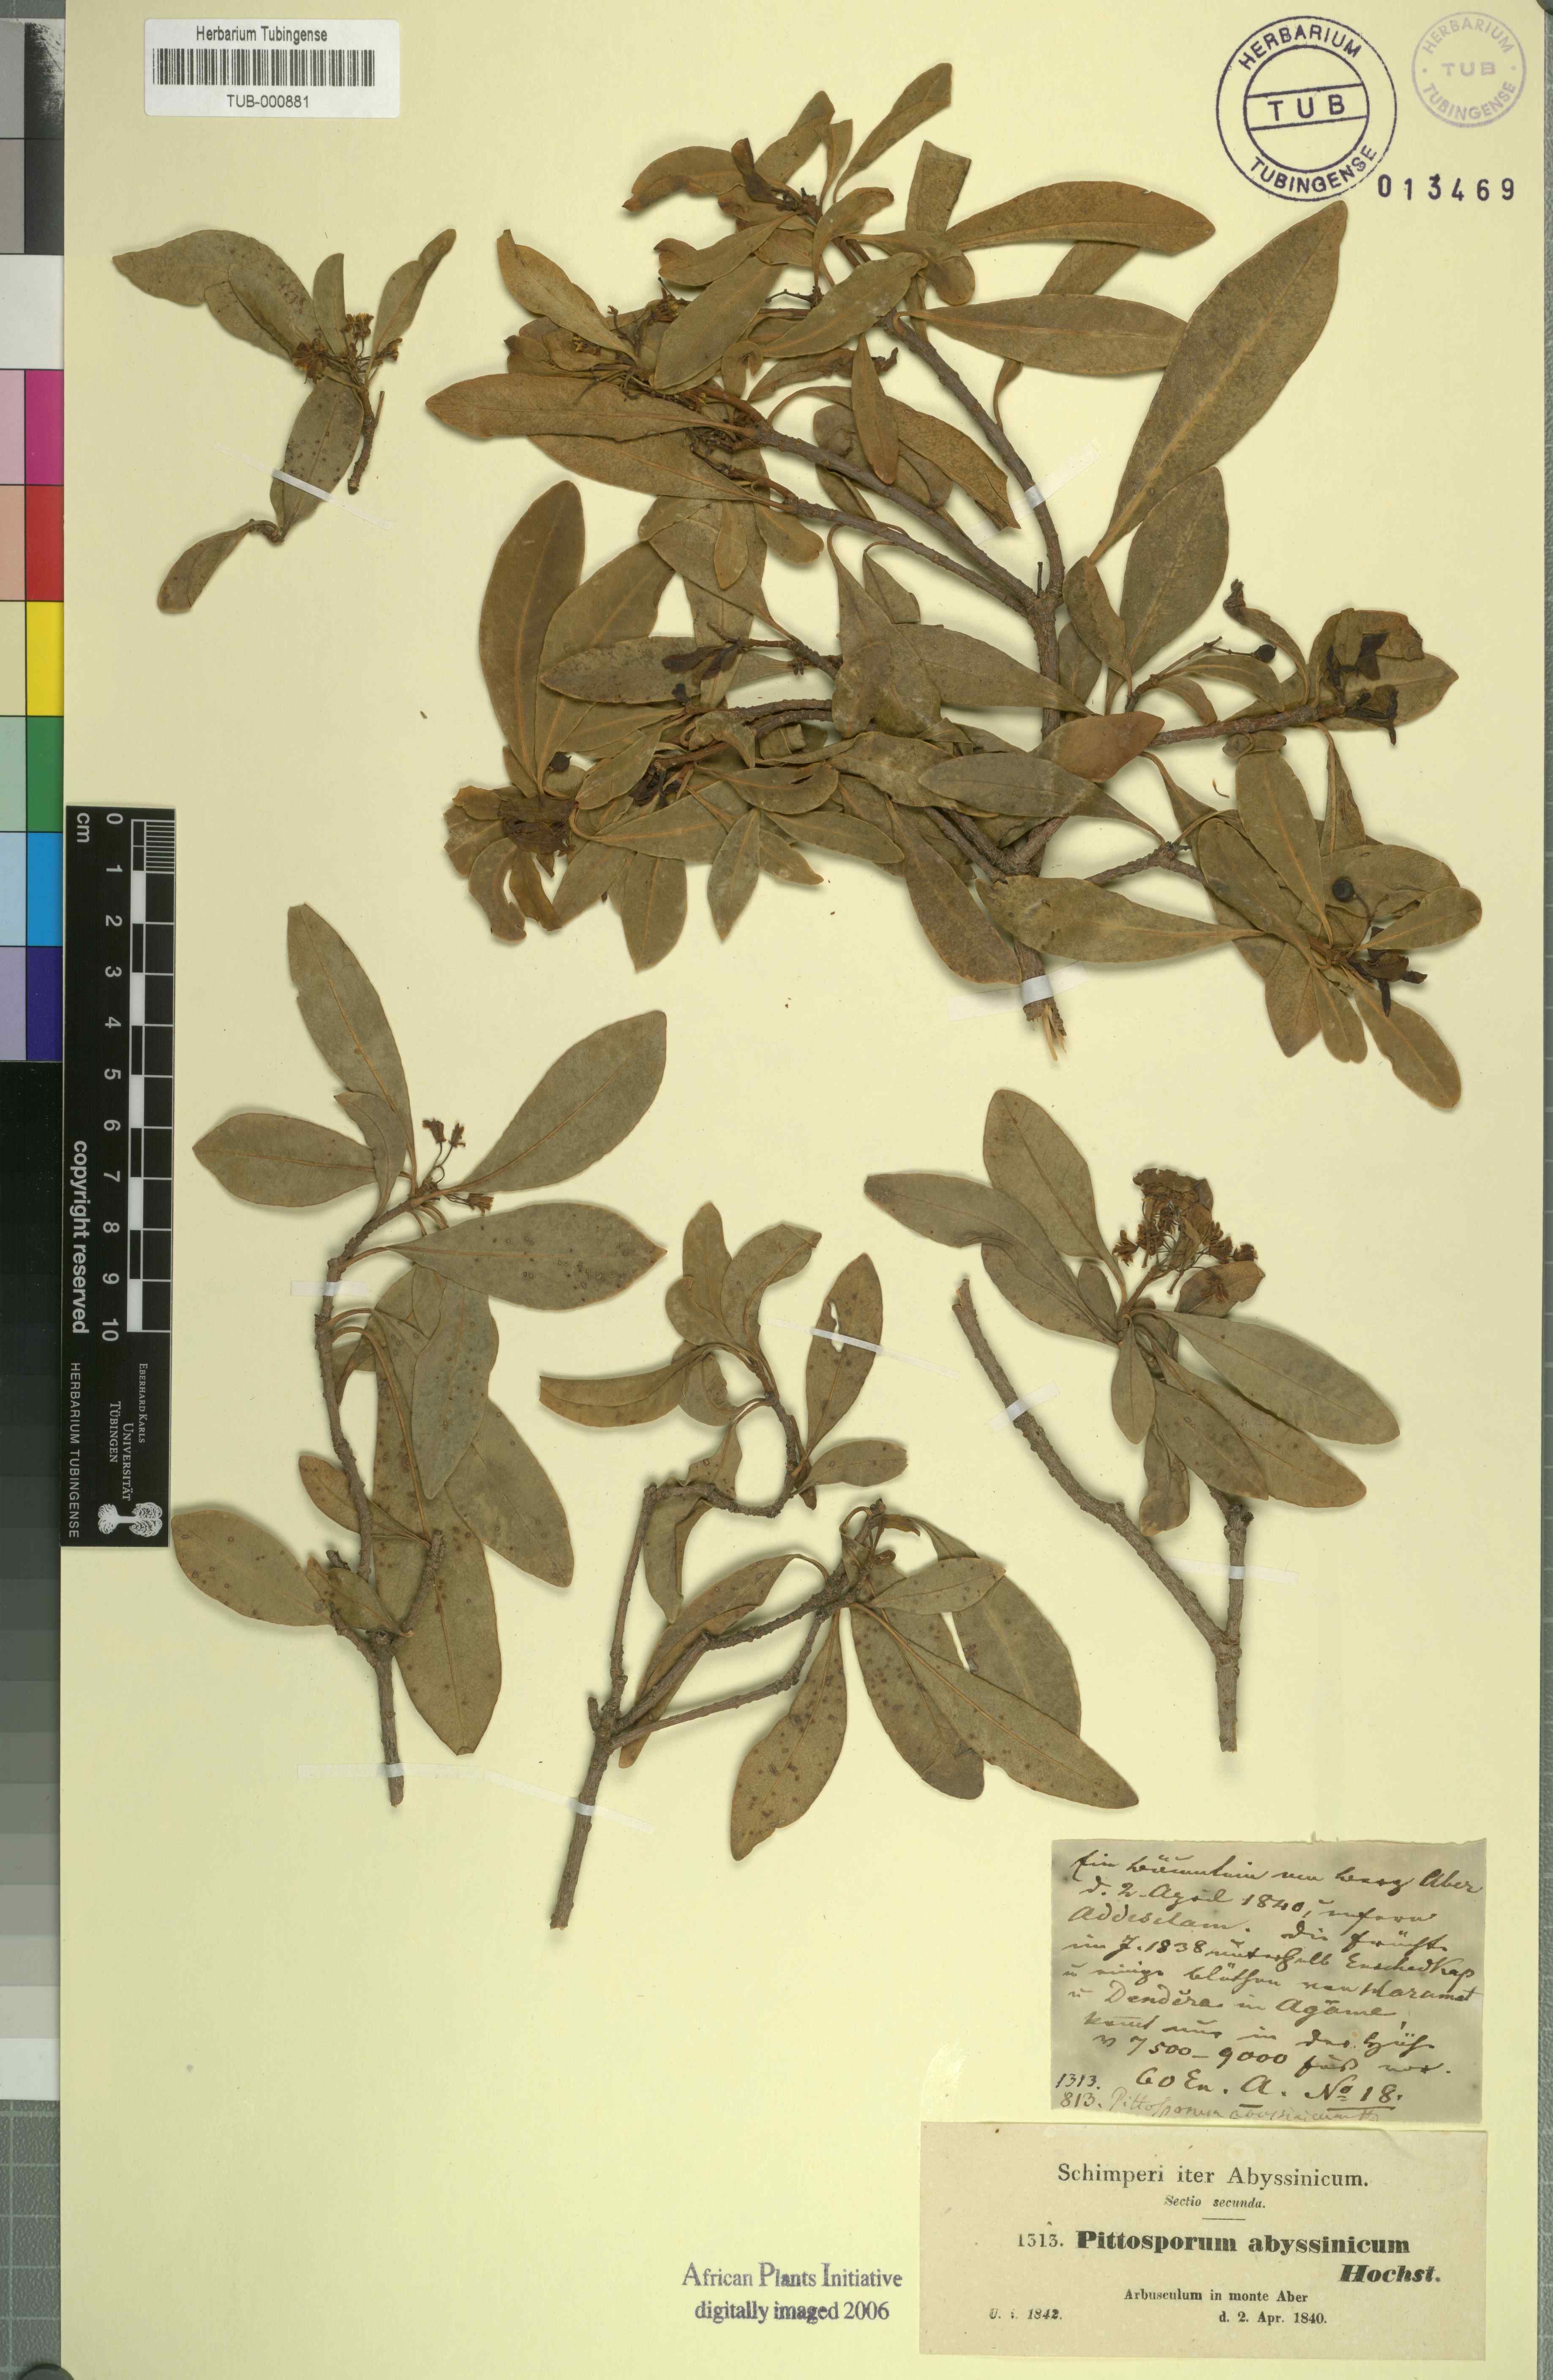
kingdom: Plantae
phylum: Tracheophyta
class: Magnoliopsida
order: Apiales
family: Pittosporaceae
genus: Pittosporum
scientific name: Pittosporum abyssinicum
